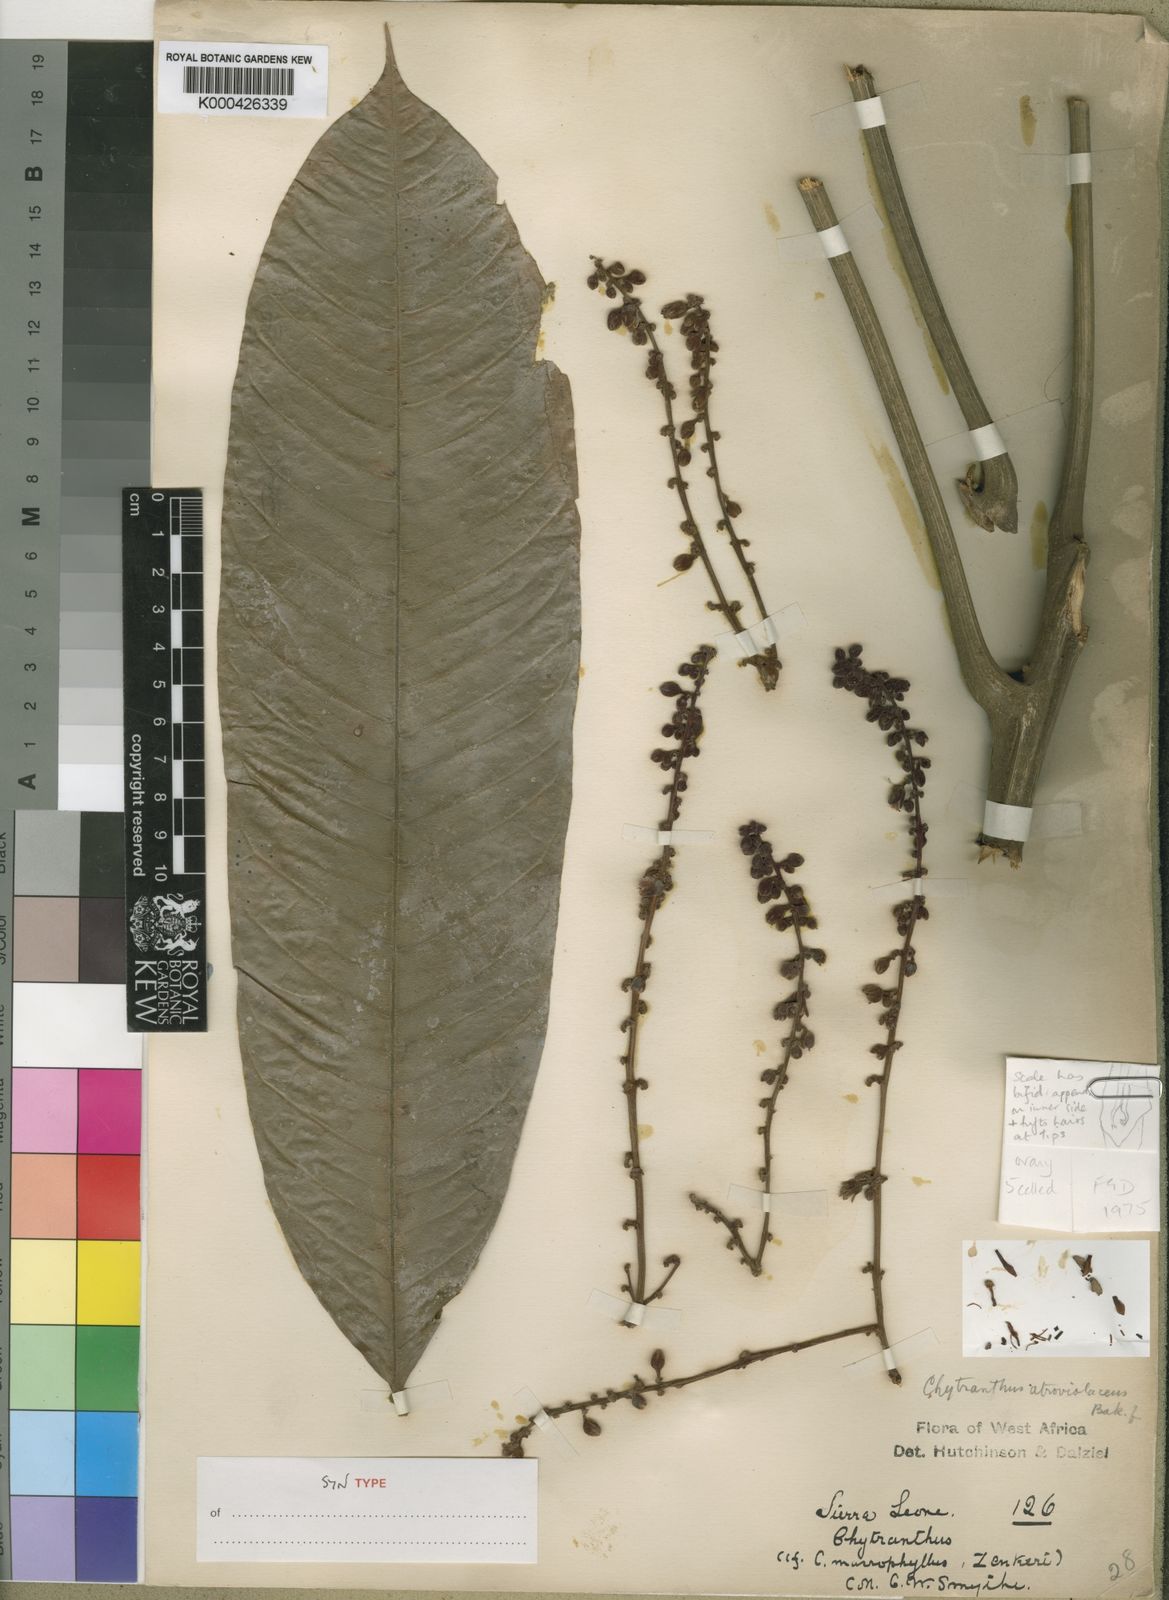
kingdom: Plantae
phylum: Tracheophyta
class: Magnoliopsida
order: Sapindales
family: Sapindaceae
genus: Chytranthus
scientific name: Chytranthus atroviolaceus
